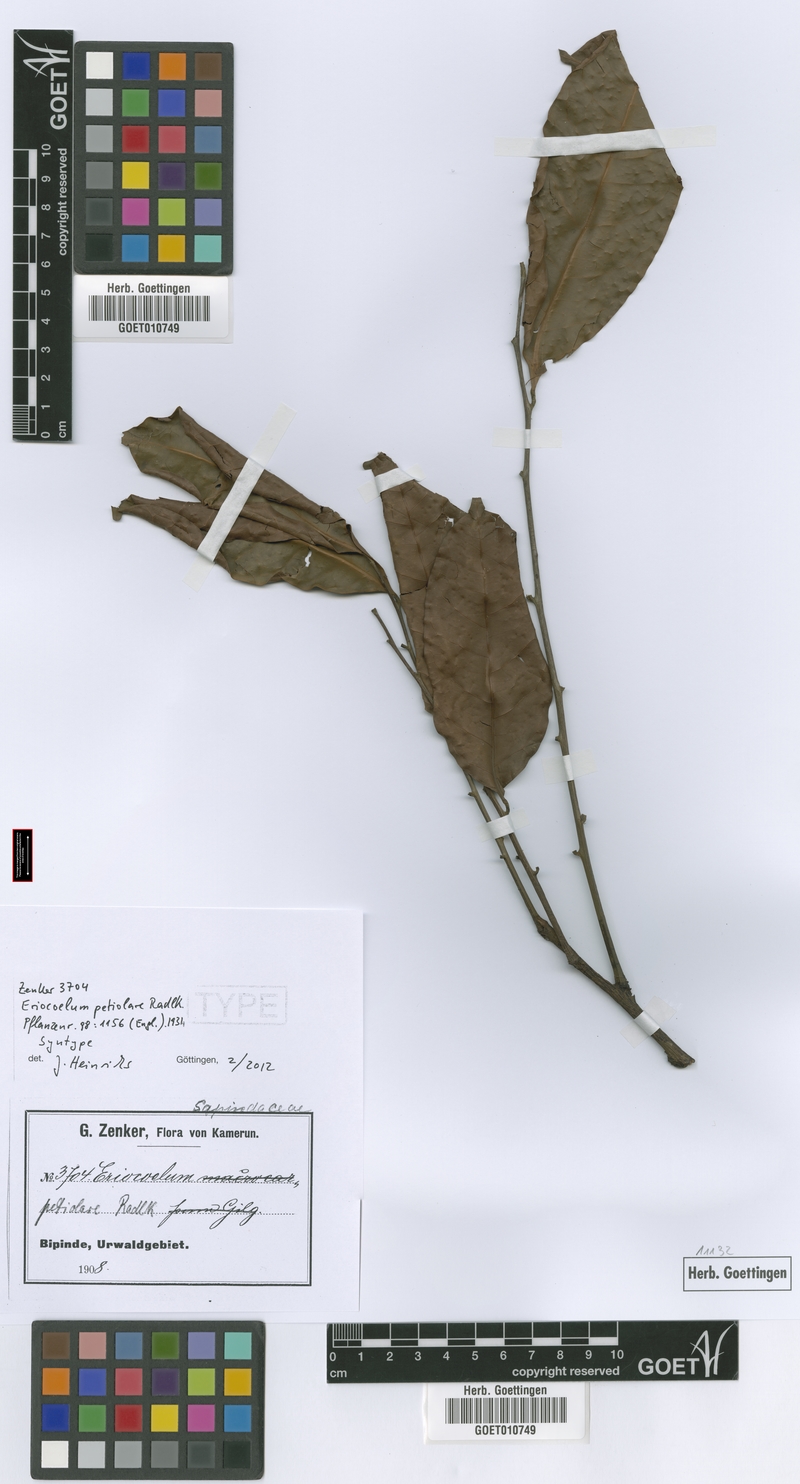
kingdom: Plantae
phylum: Tracheophyta
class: Magnoliopsida
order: Sapindales
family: Sapindaceae
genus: Eriocoelum
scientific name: Eriocoelum petiolare
